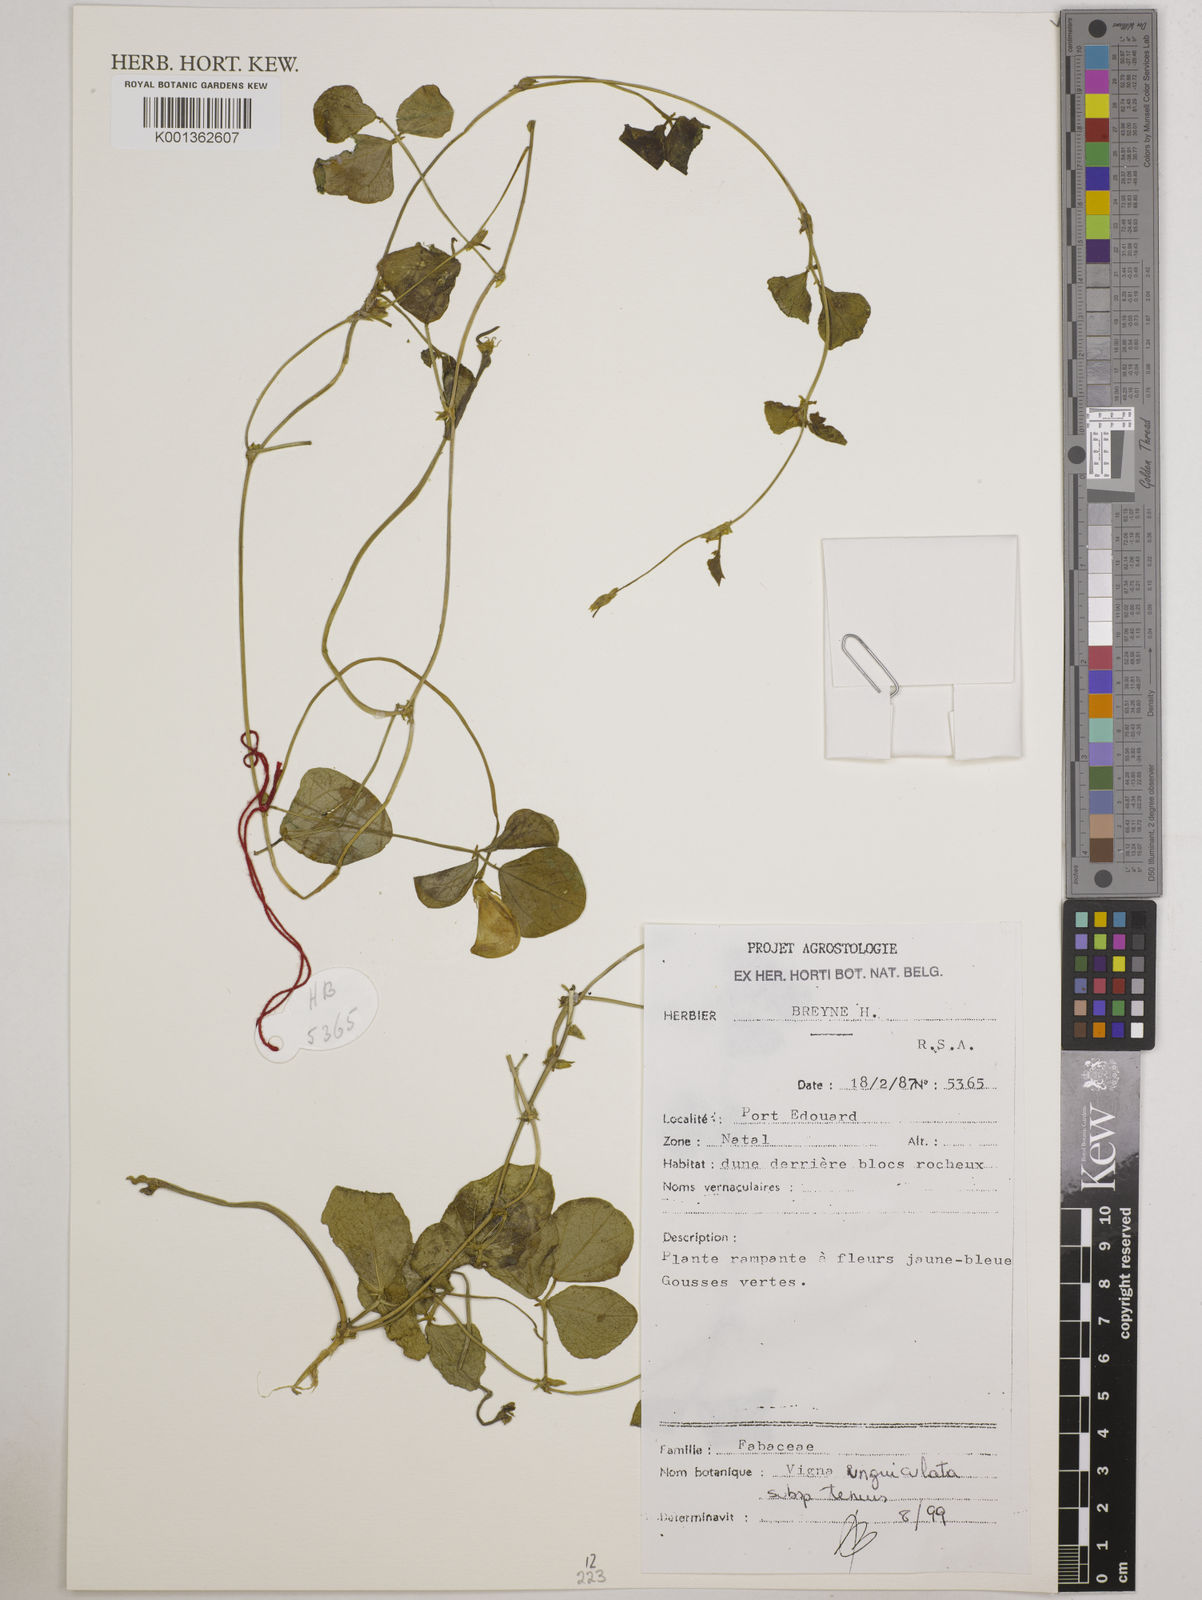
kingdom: Plantae
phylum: Tracheophyta
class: Magnoliopsida
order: Fabales
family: Fabaceae
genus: Vigna
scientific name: Vigna
